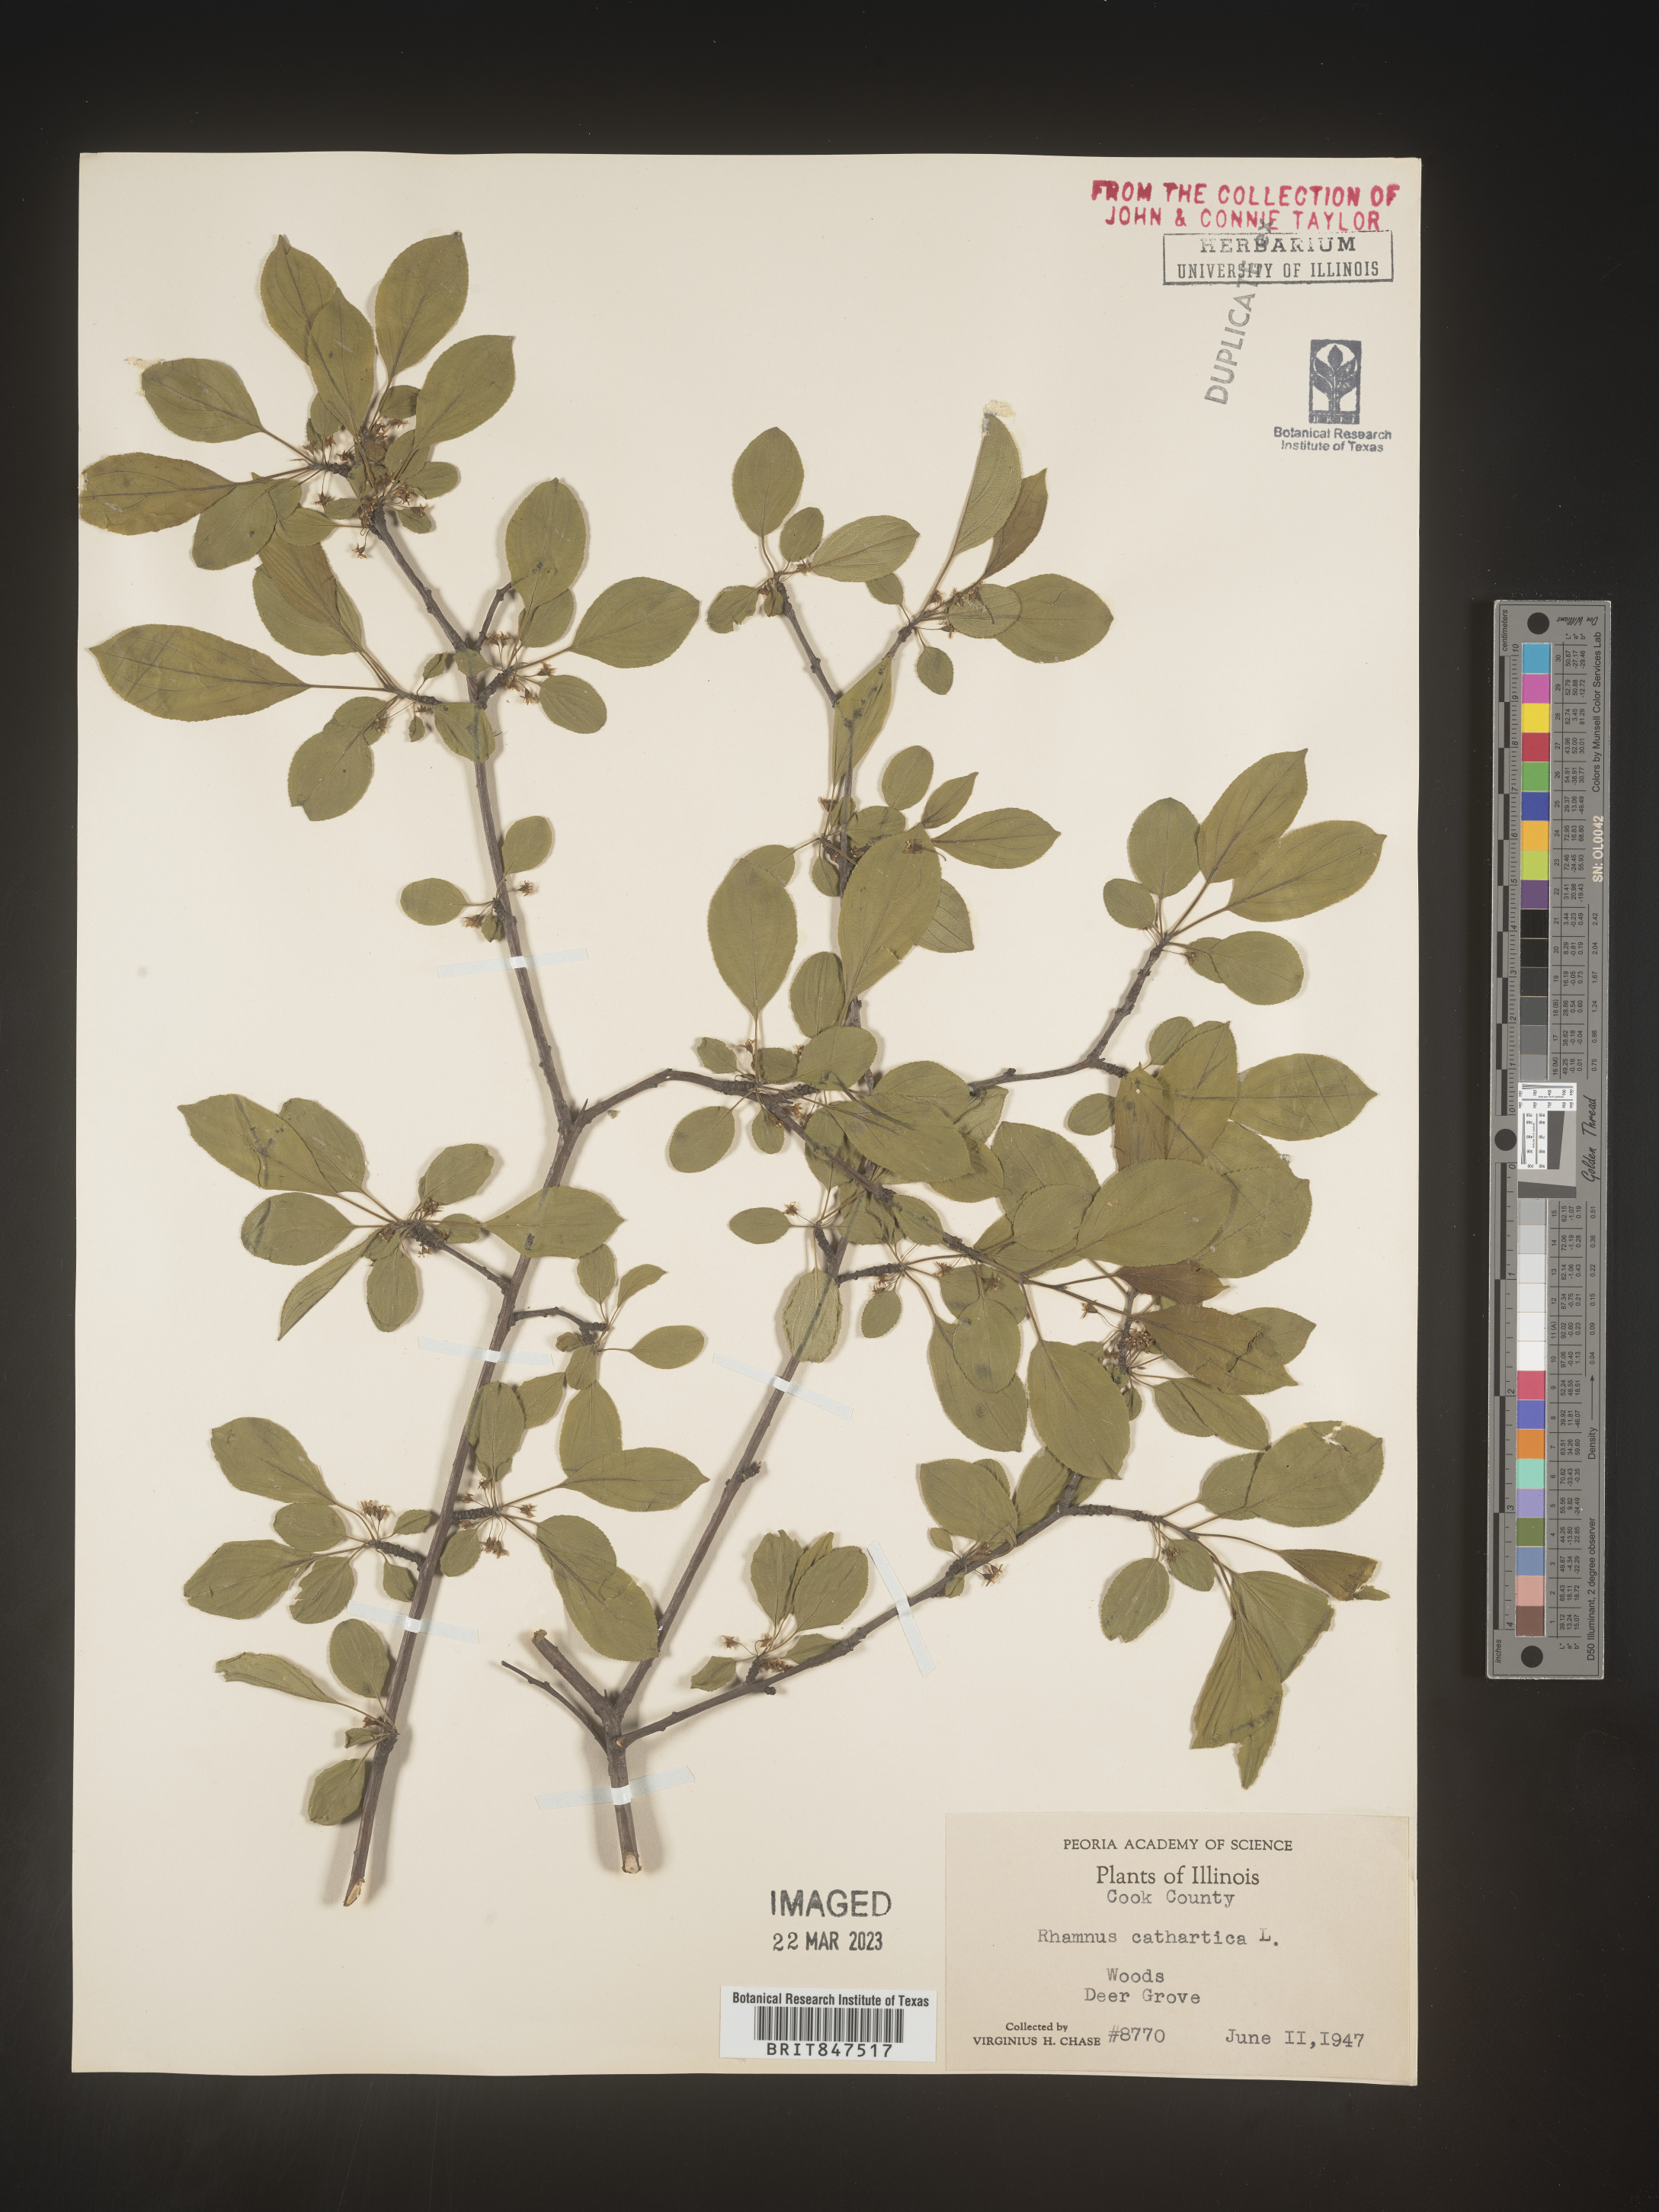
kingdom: Plantae
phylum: Tracheophyta
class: Magnoliopsida
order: Rosales
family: Rhamnaceae
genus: Rhamnus
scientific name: Rhamnus cathartica
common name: Common buckthorn
